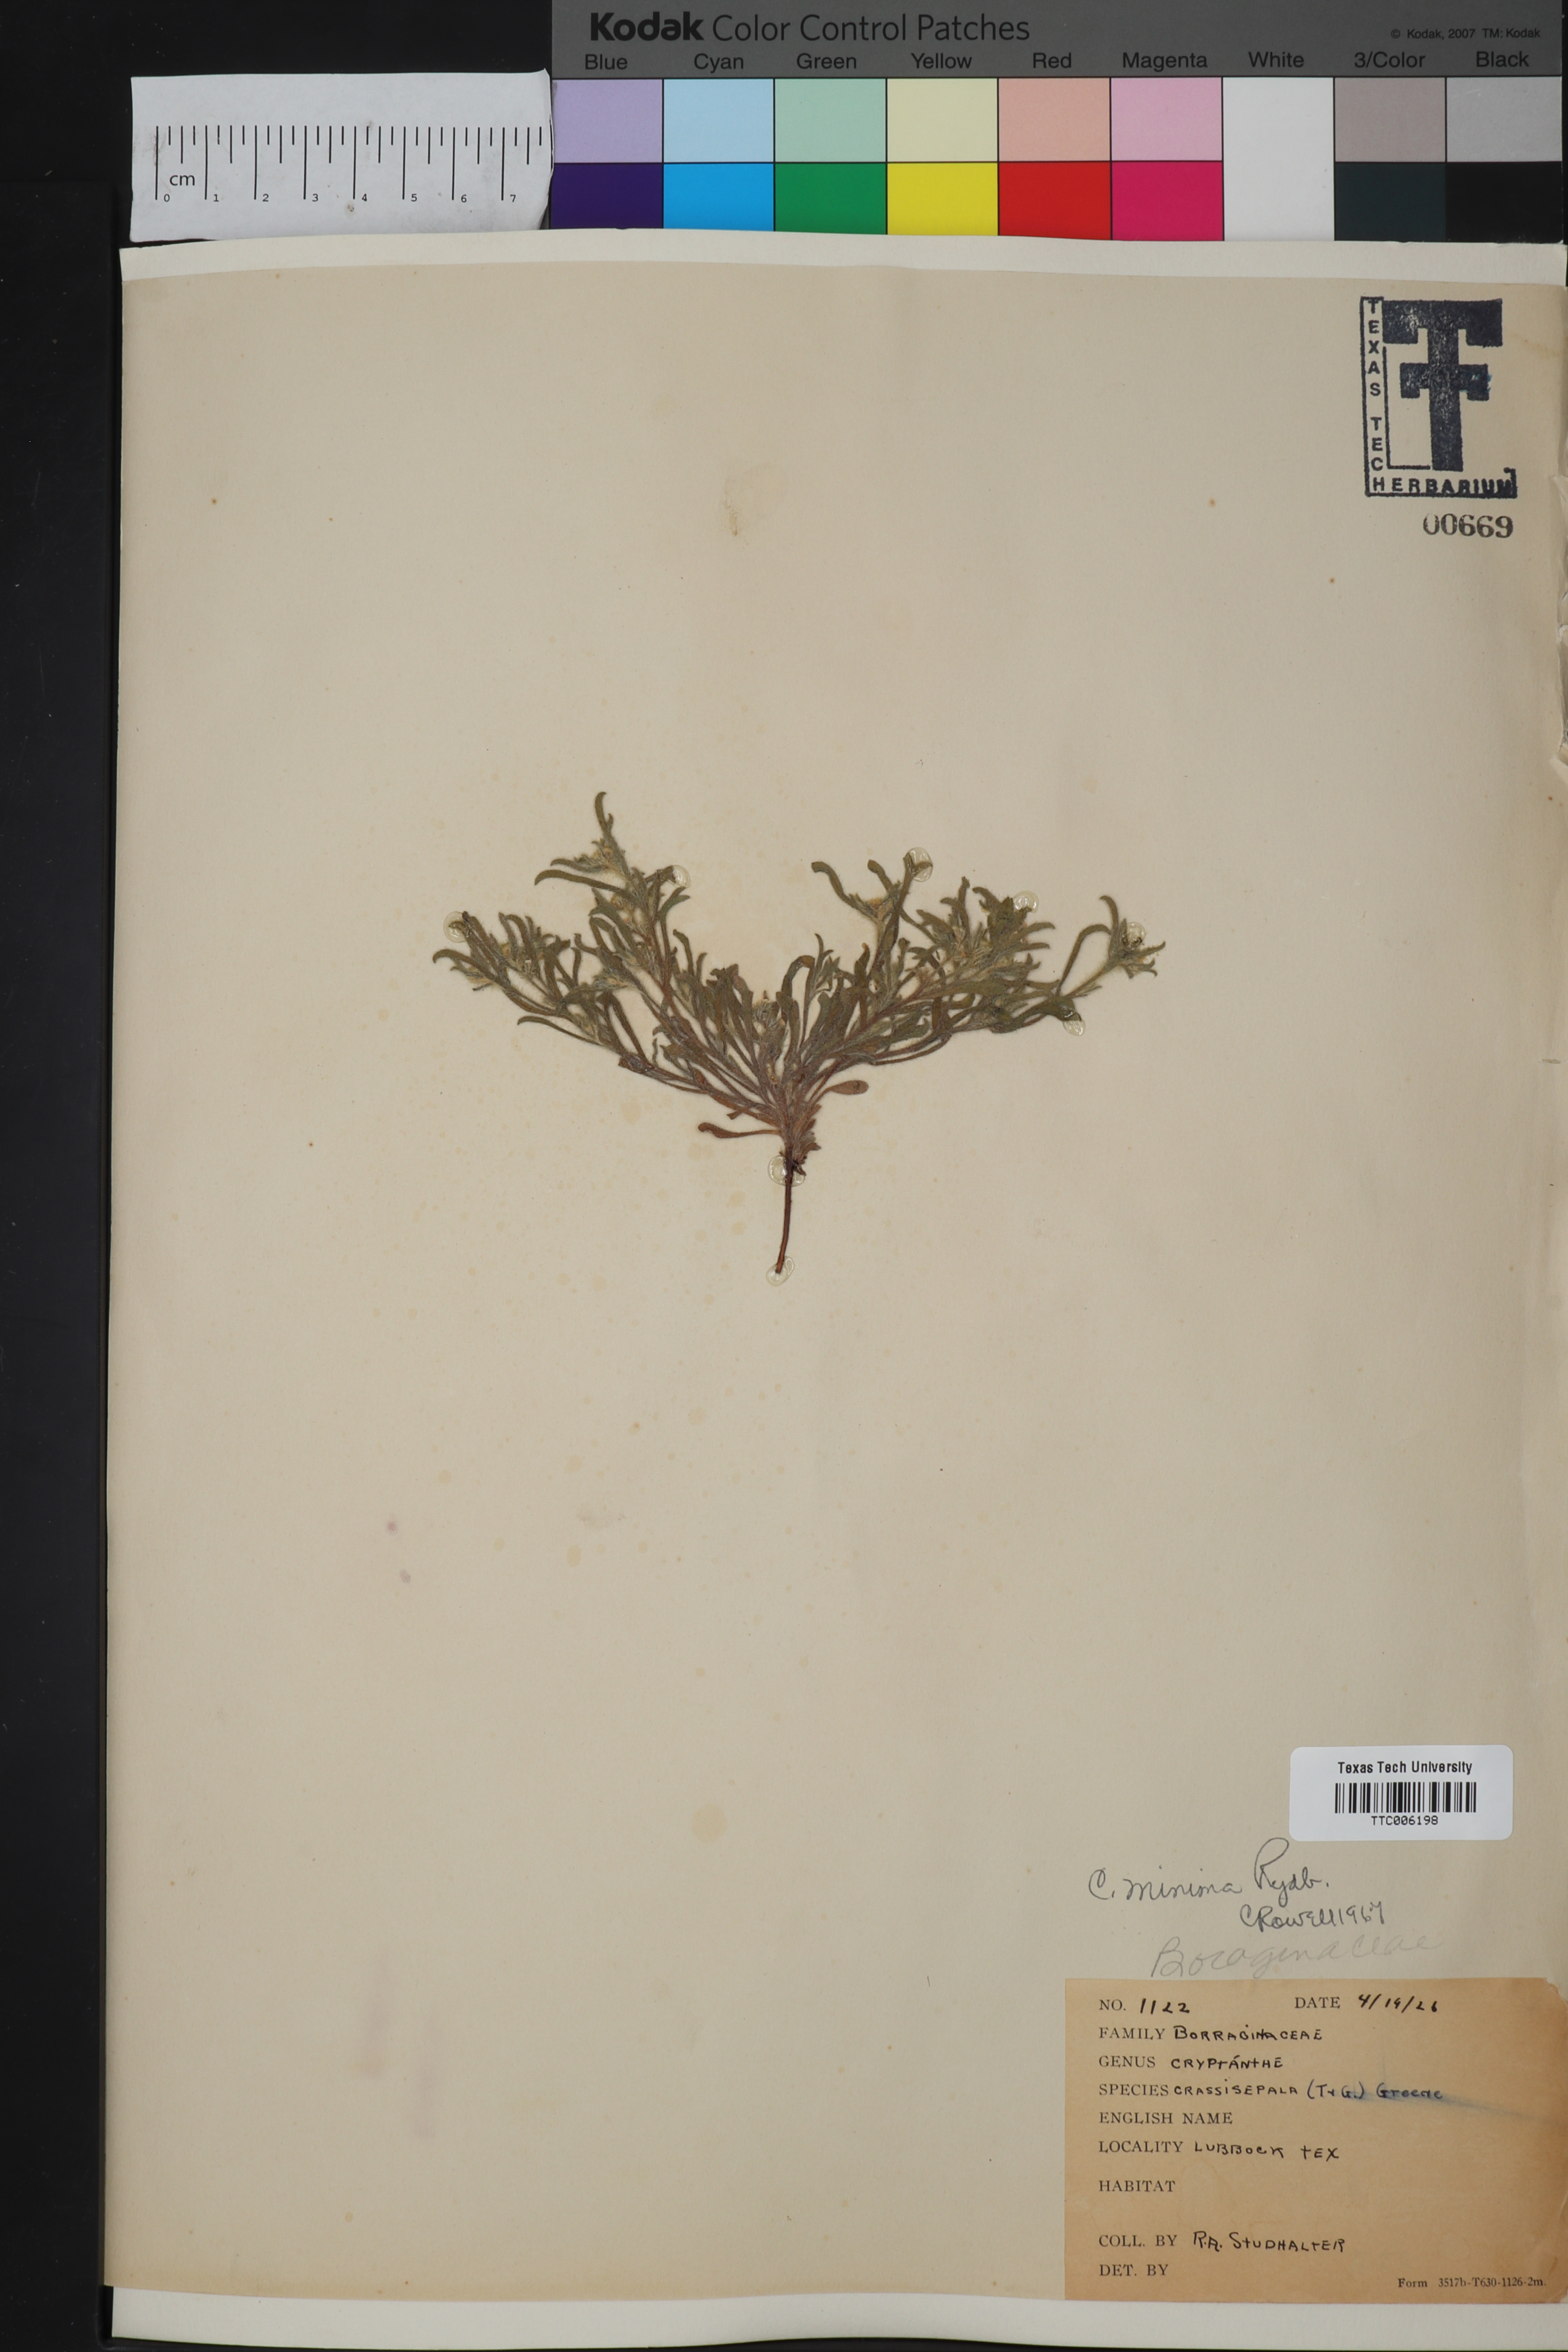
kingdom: Plantae
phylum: Tracheophyta
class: Magnoliopsida
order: Boraginales
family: Boraginaceae
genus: Cryptantha
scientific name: Cryptantha minima
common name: Little cat's-eye
